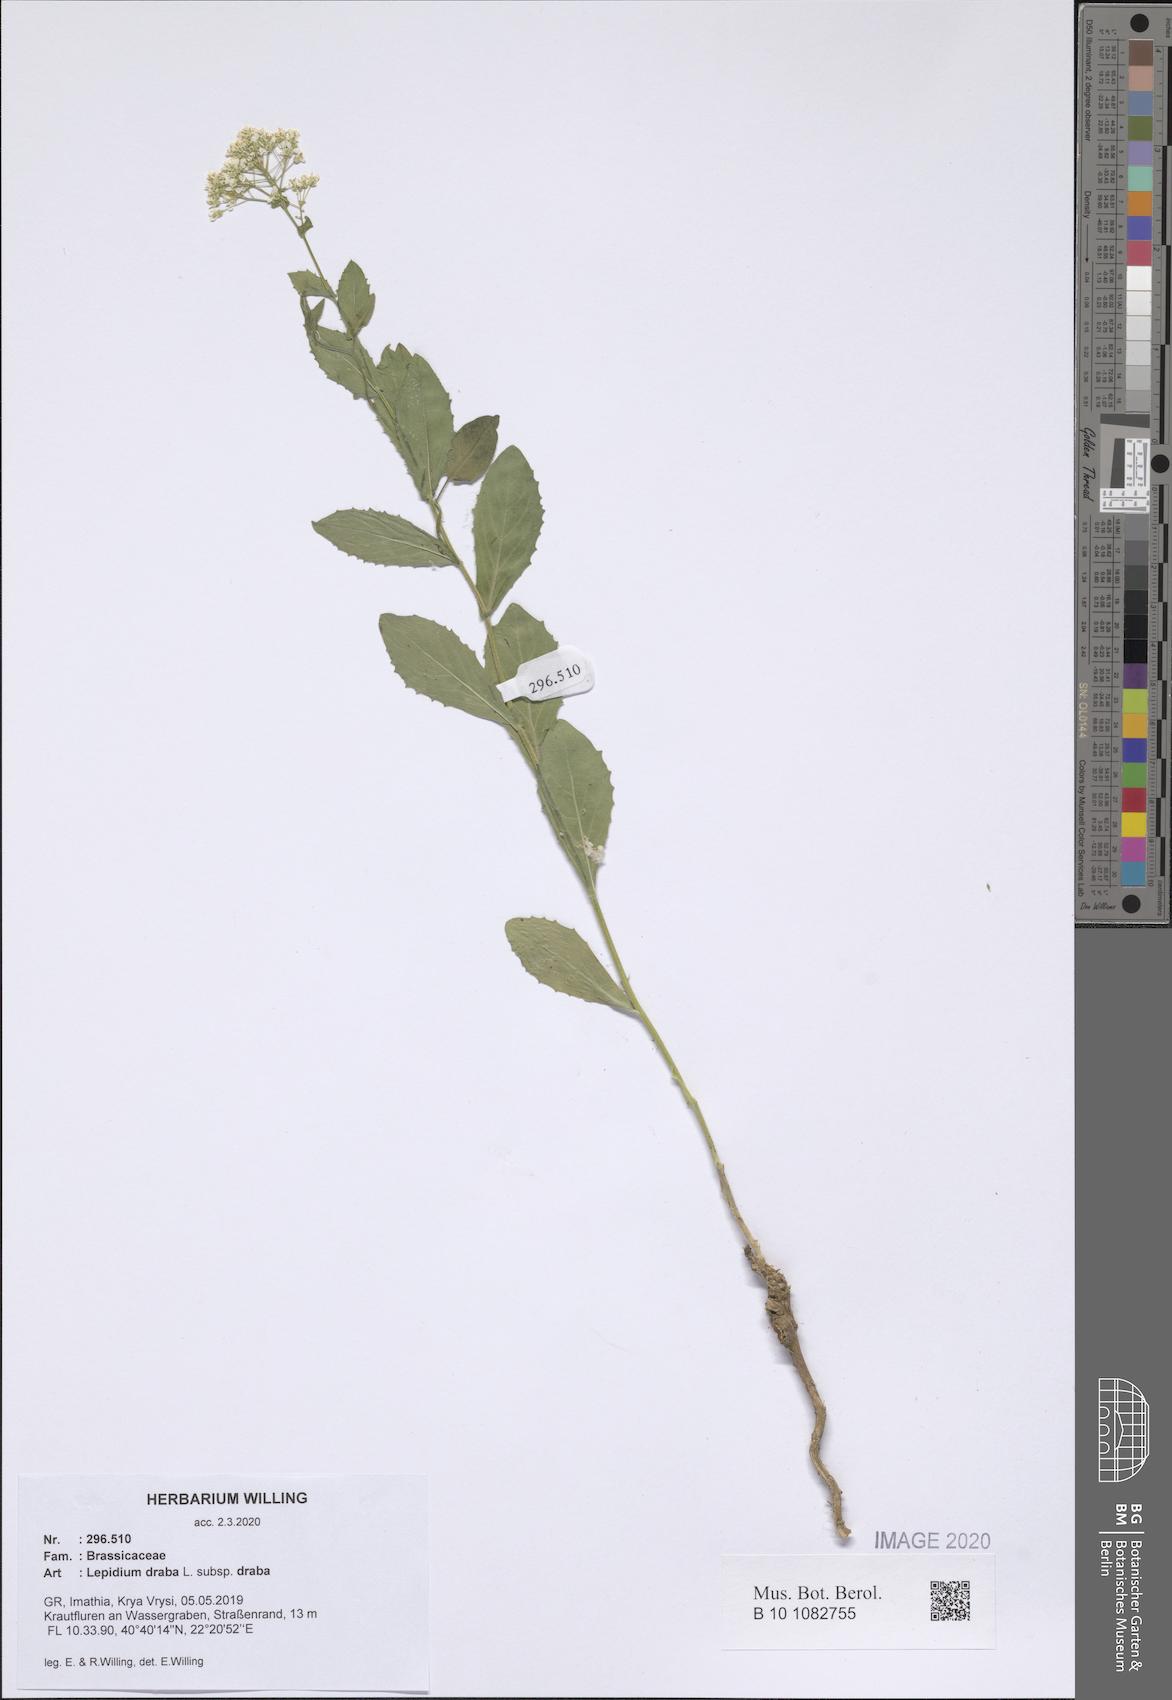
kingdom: Plantae
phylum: Tracheophyta
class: Magnoliopsida
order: Brassicales
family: Brassicaceae
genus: Lepidium
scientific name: Lepidium draba
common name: Hoary cress
